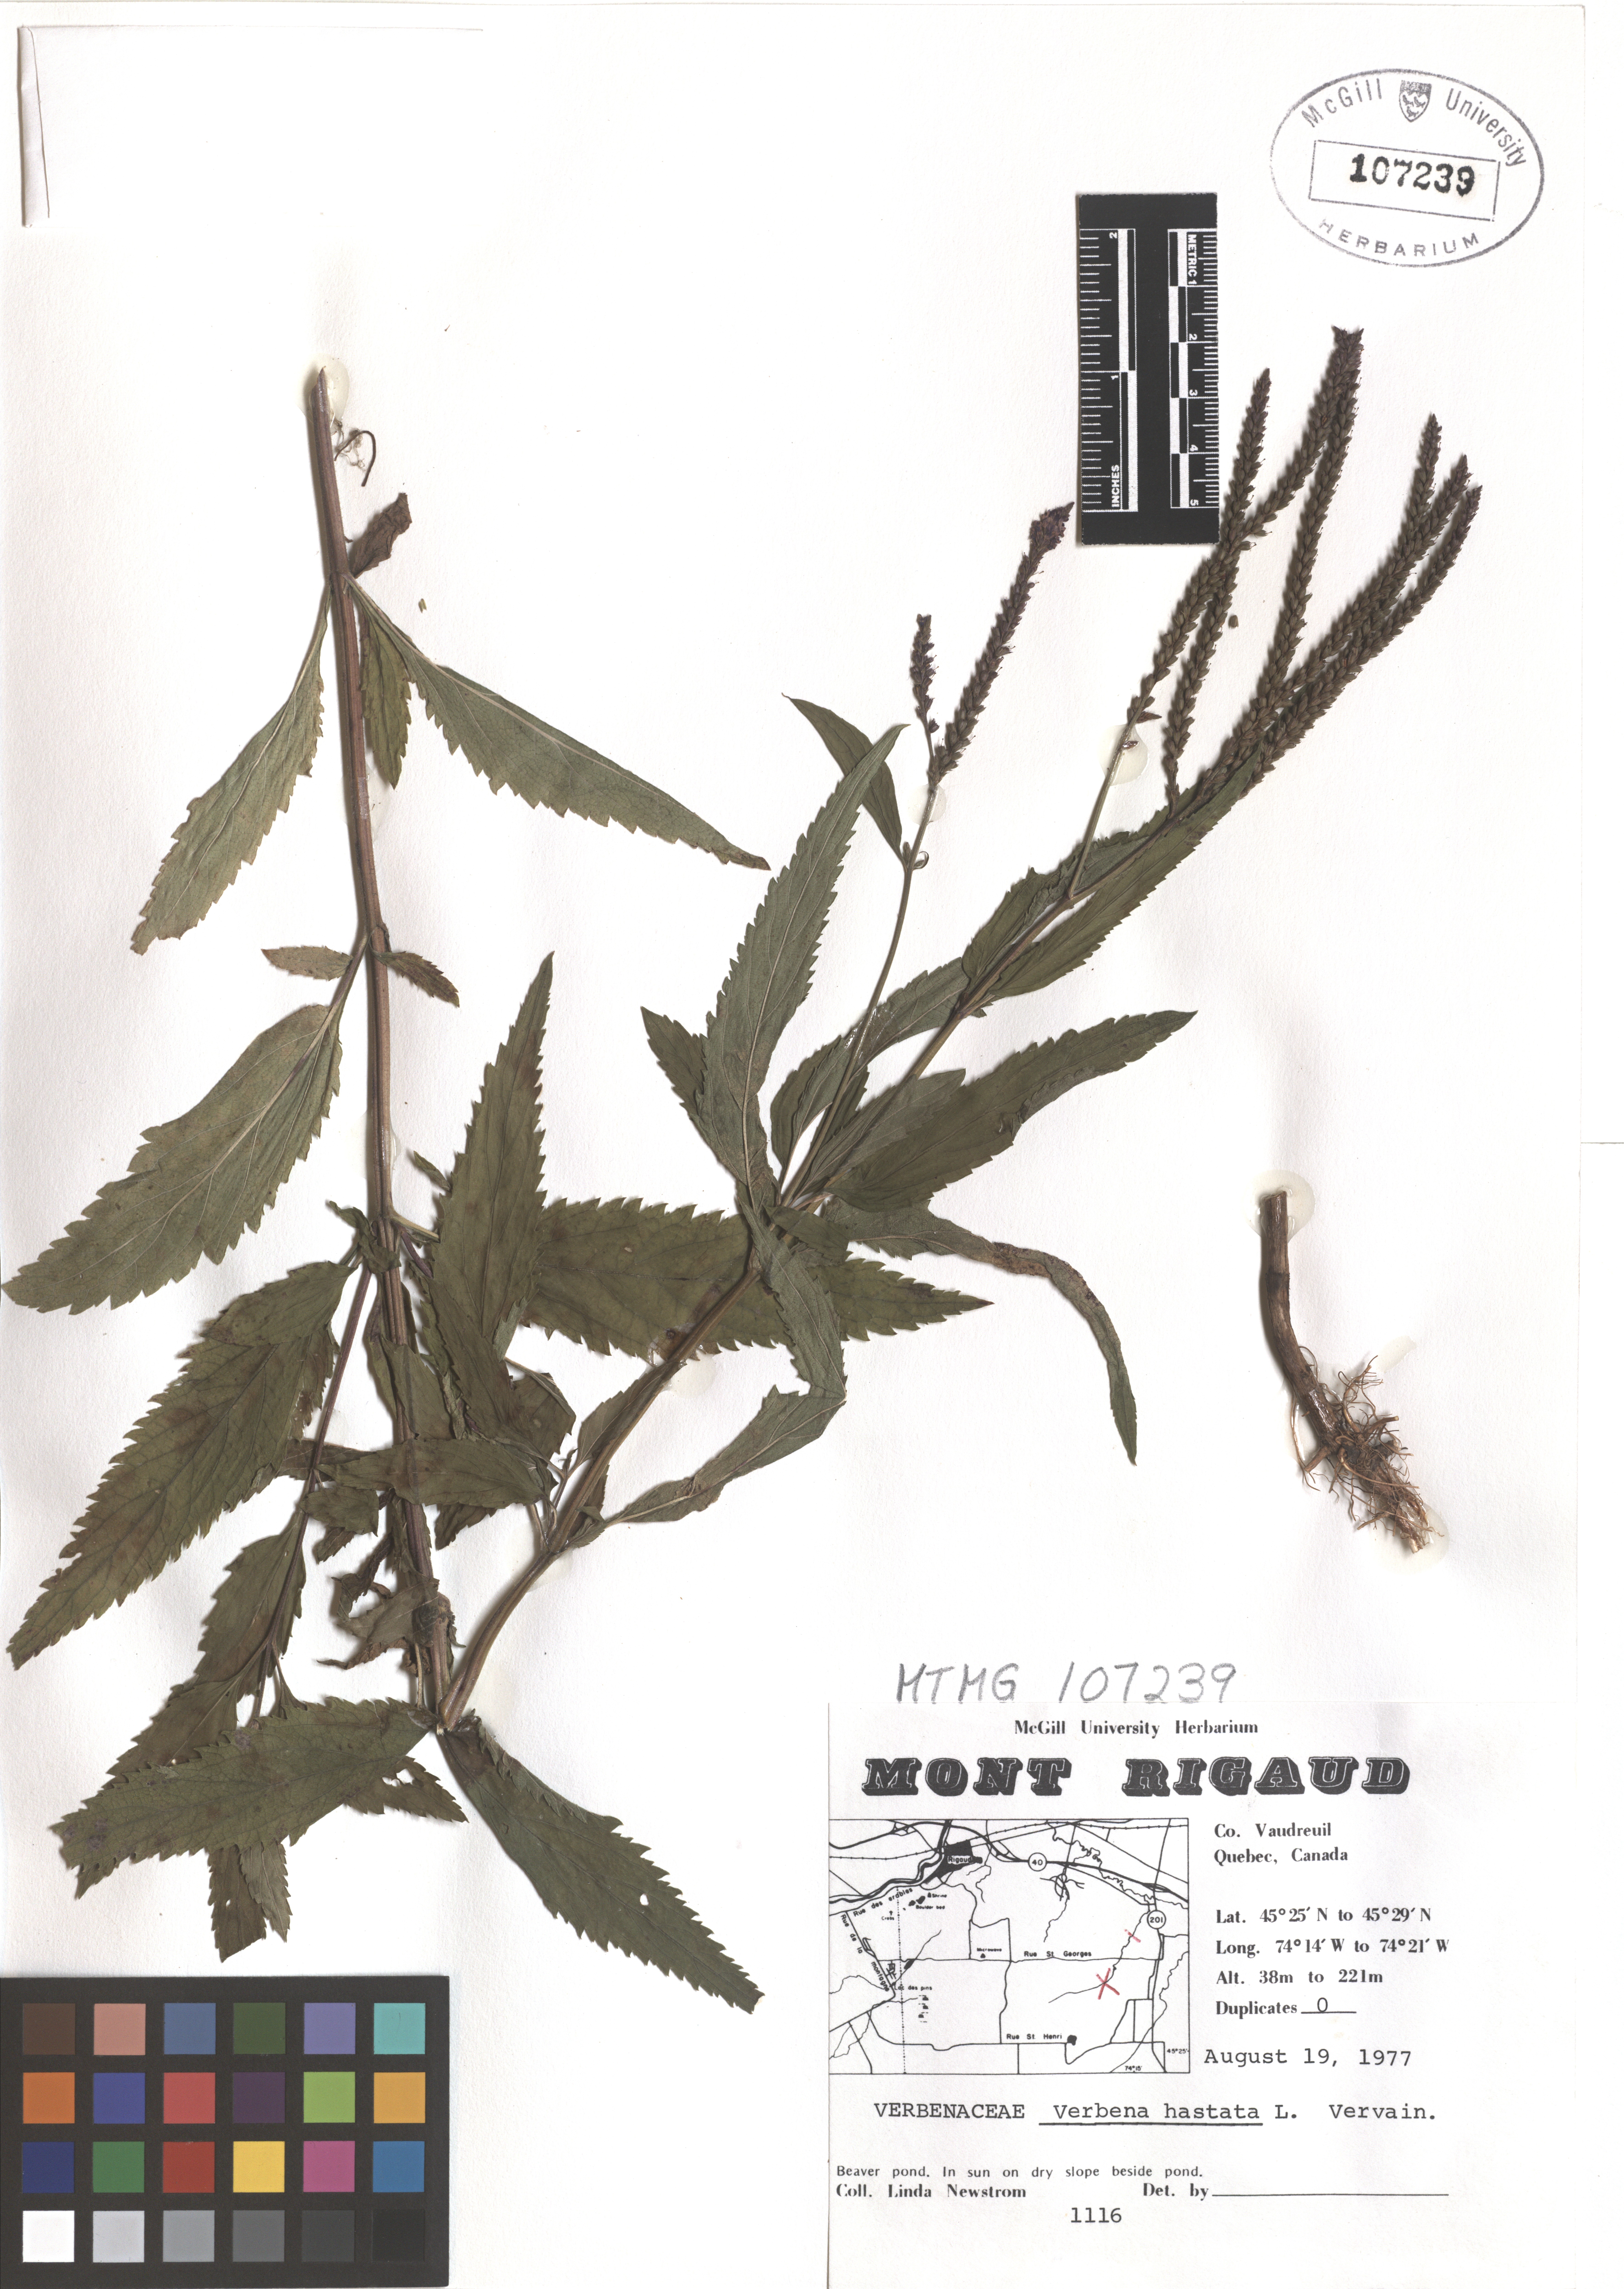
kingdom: Plantae
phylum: Tracheophyta
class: Magnoliopsida
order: Lamiales
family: Verbenaceae
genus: Verbena
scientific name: Verbena hastata
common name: American blue vervain
